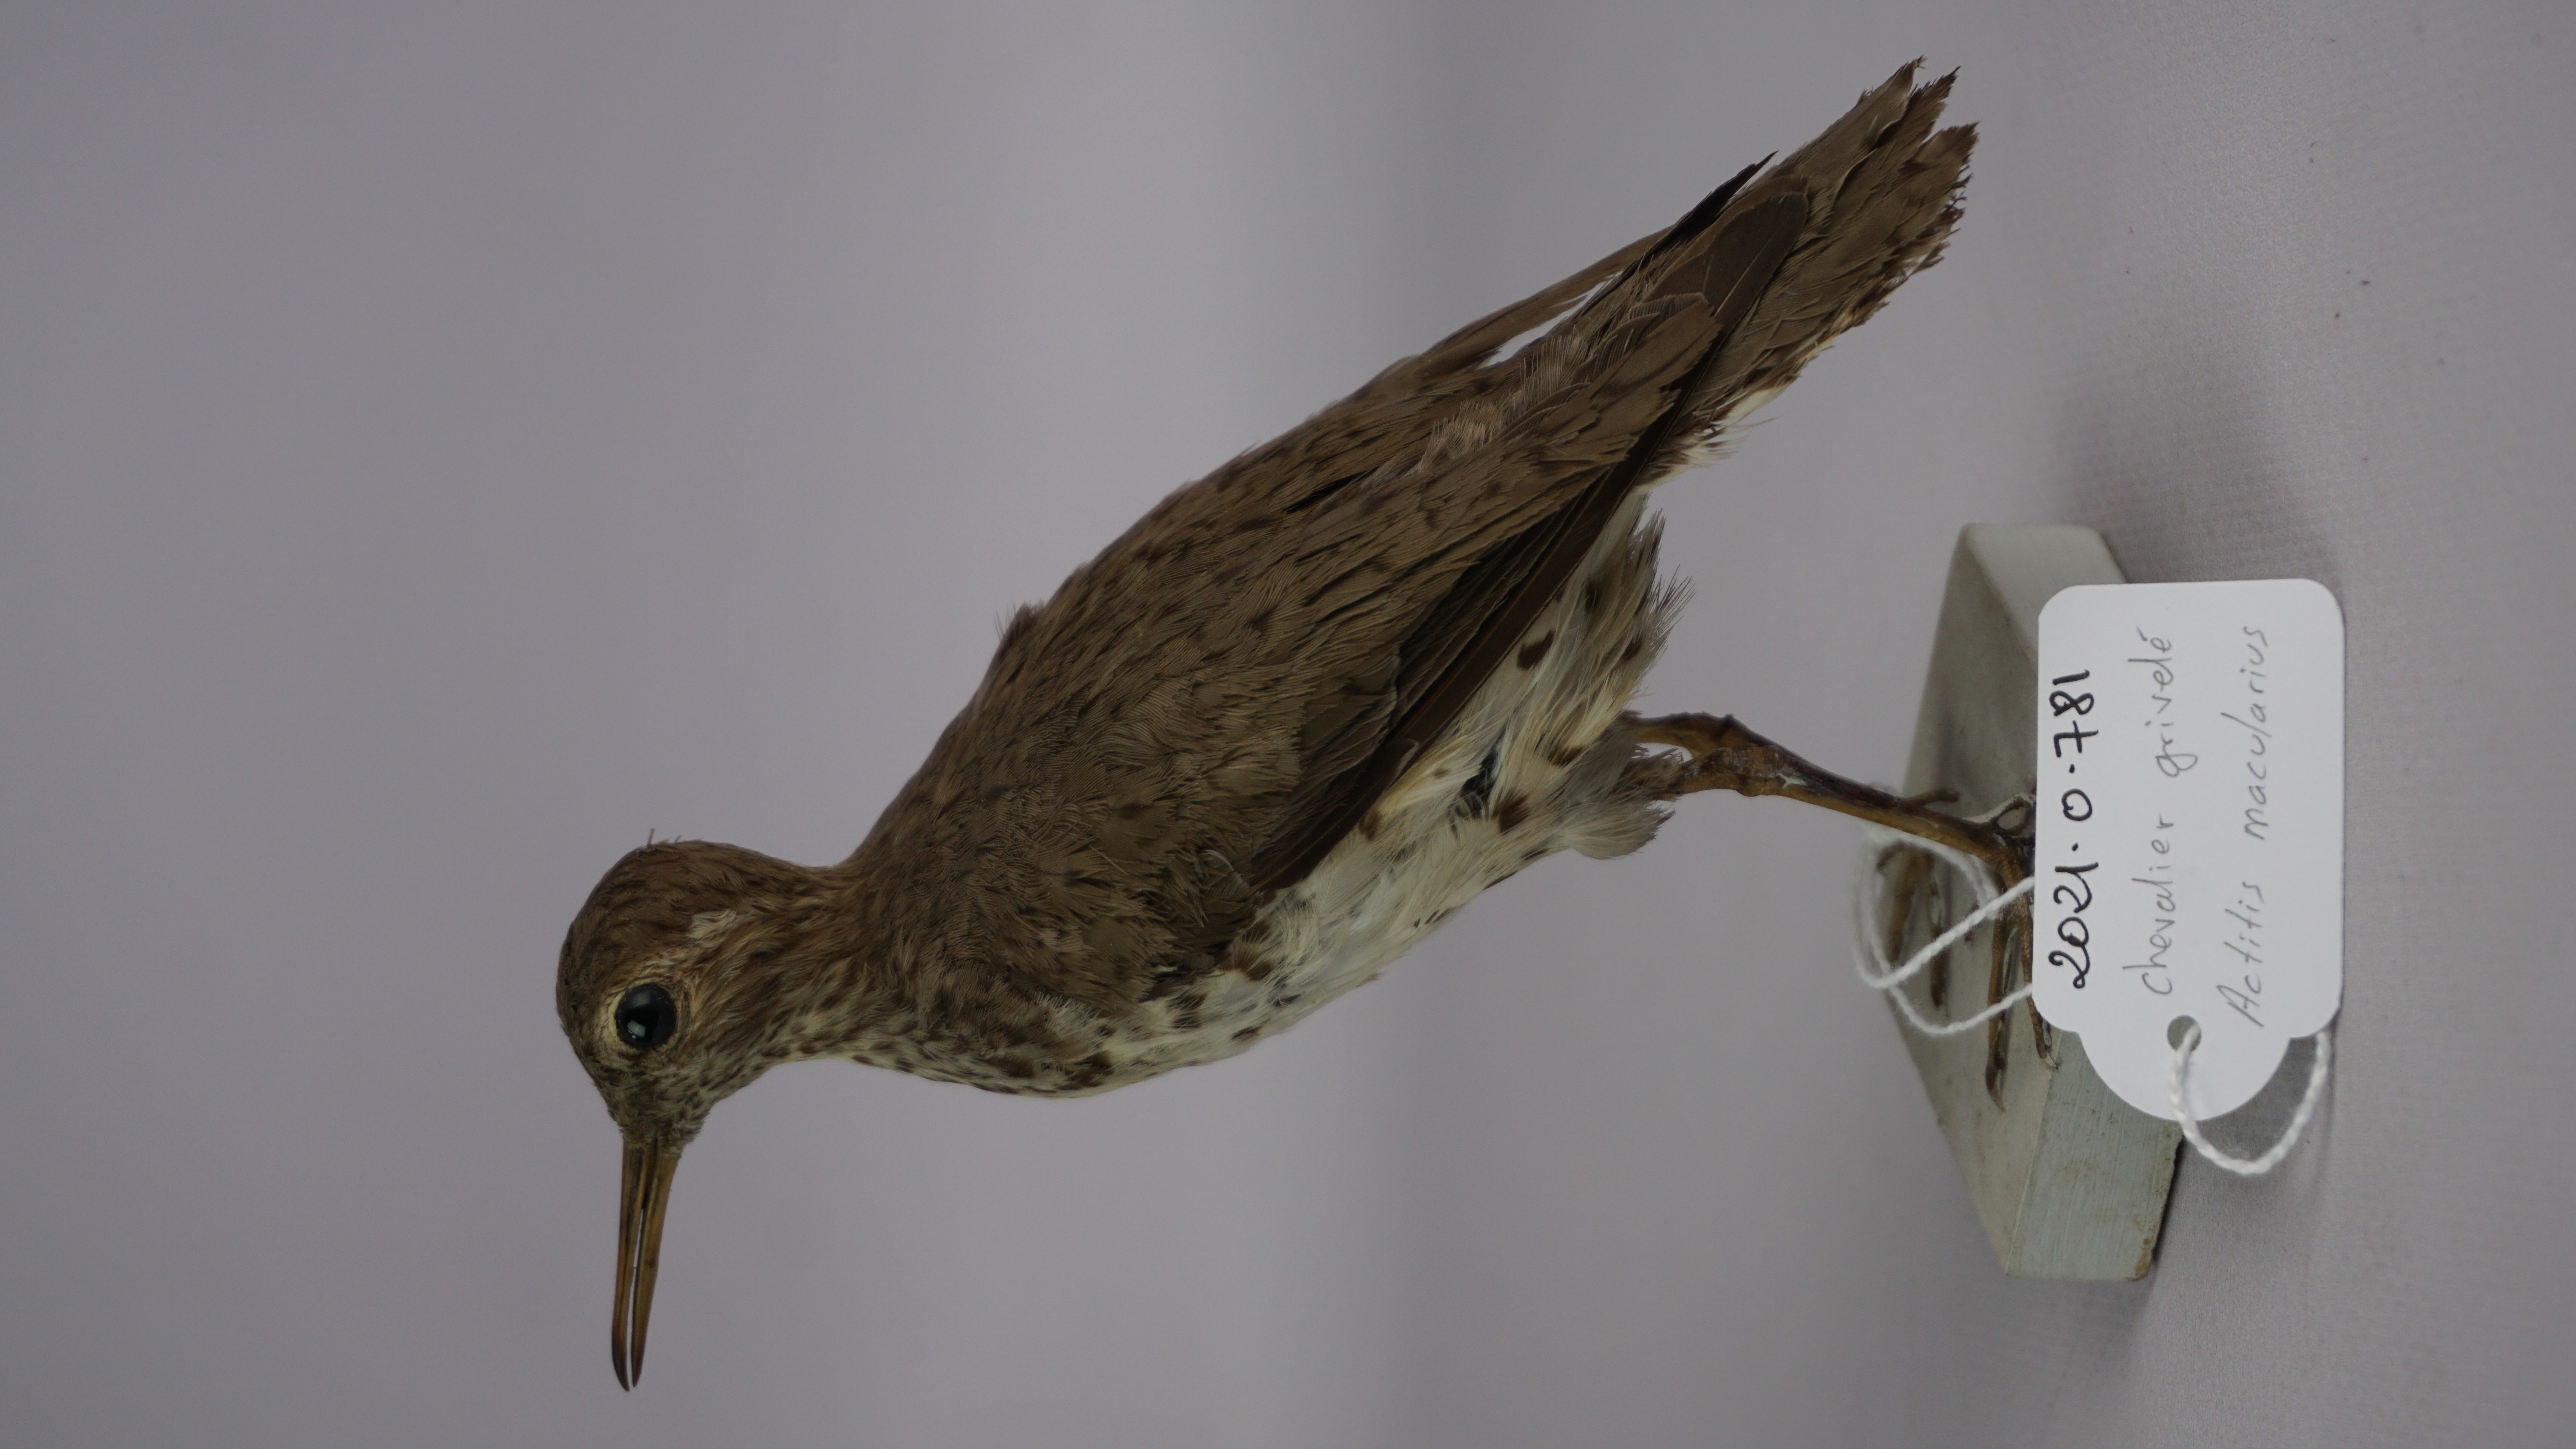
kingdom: Animalia
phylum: Chordata
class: Aves
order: Charadriiformes
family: Scolopacidae
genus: Actitis
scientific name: Actitis macularius
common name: Spotted sandpiper
